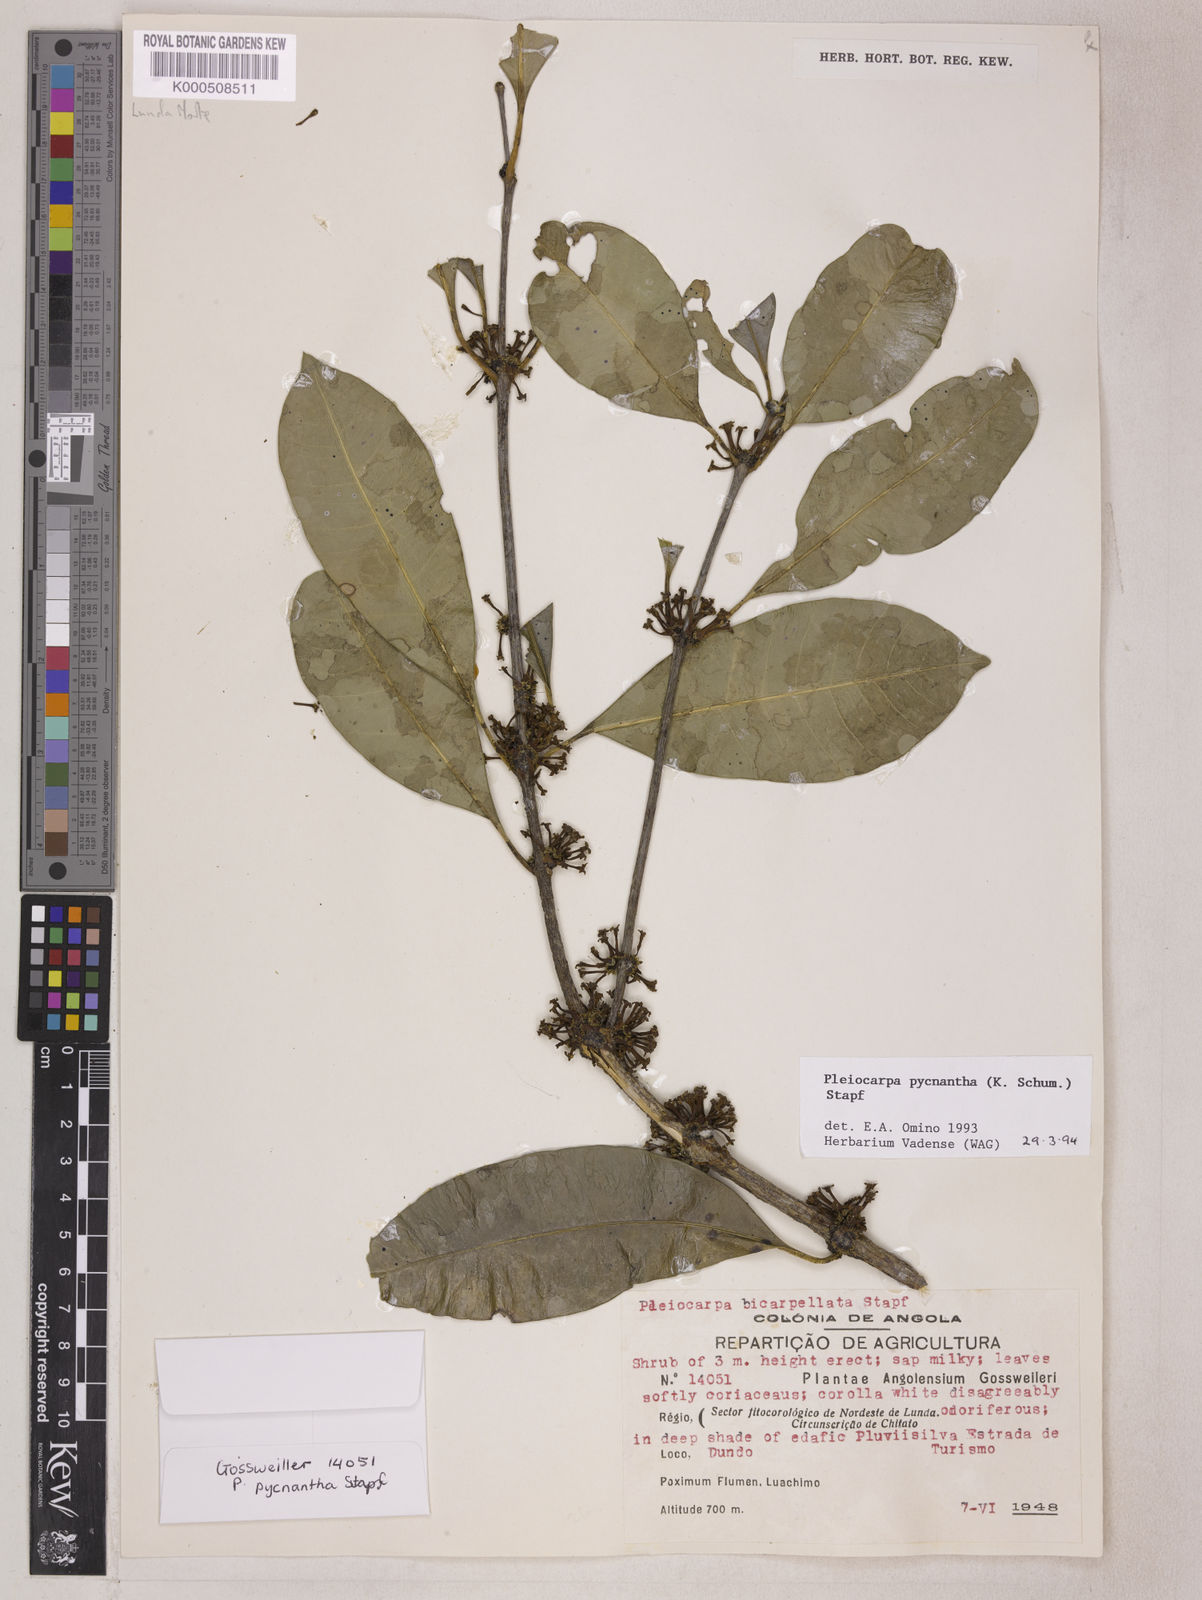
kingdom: Plantae
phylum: Tracheophyta
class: Magnoliopsida
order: Gentianales
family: Apocynaceae
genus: Pleiocarpa
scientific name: Pleiocarpa pycnantha
